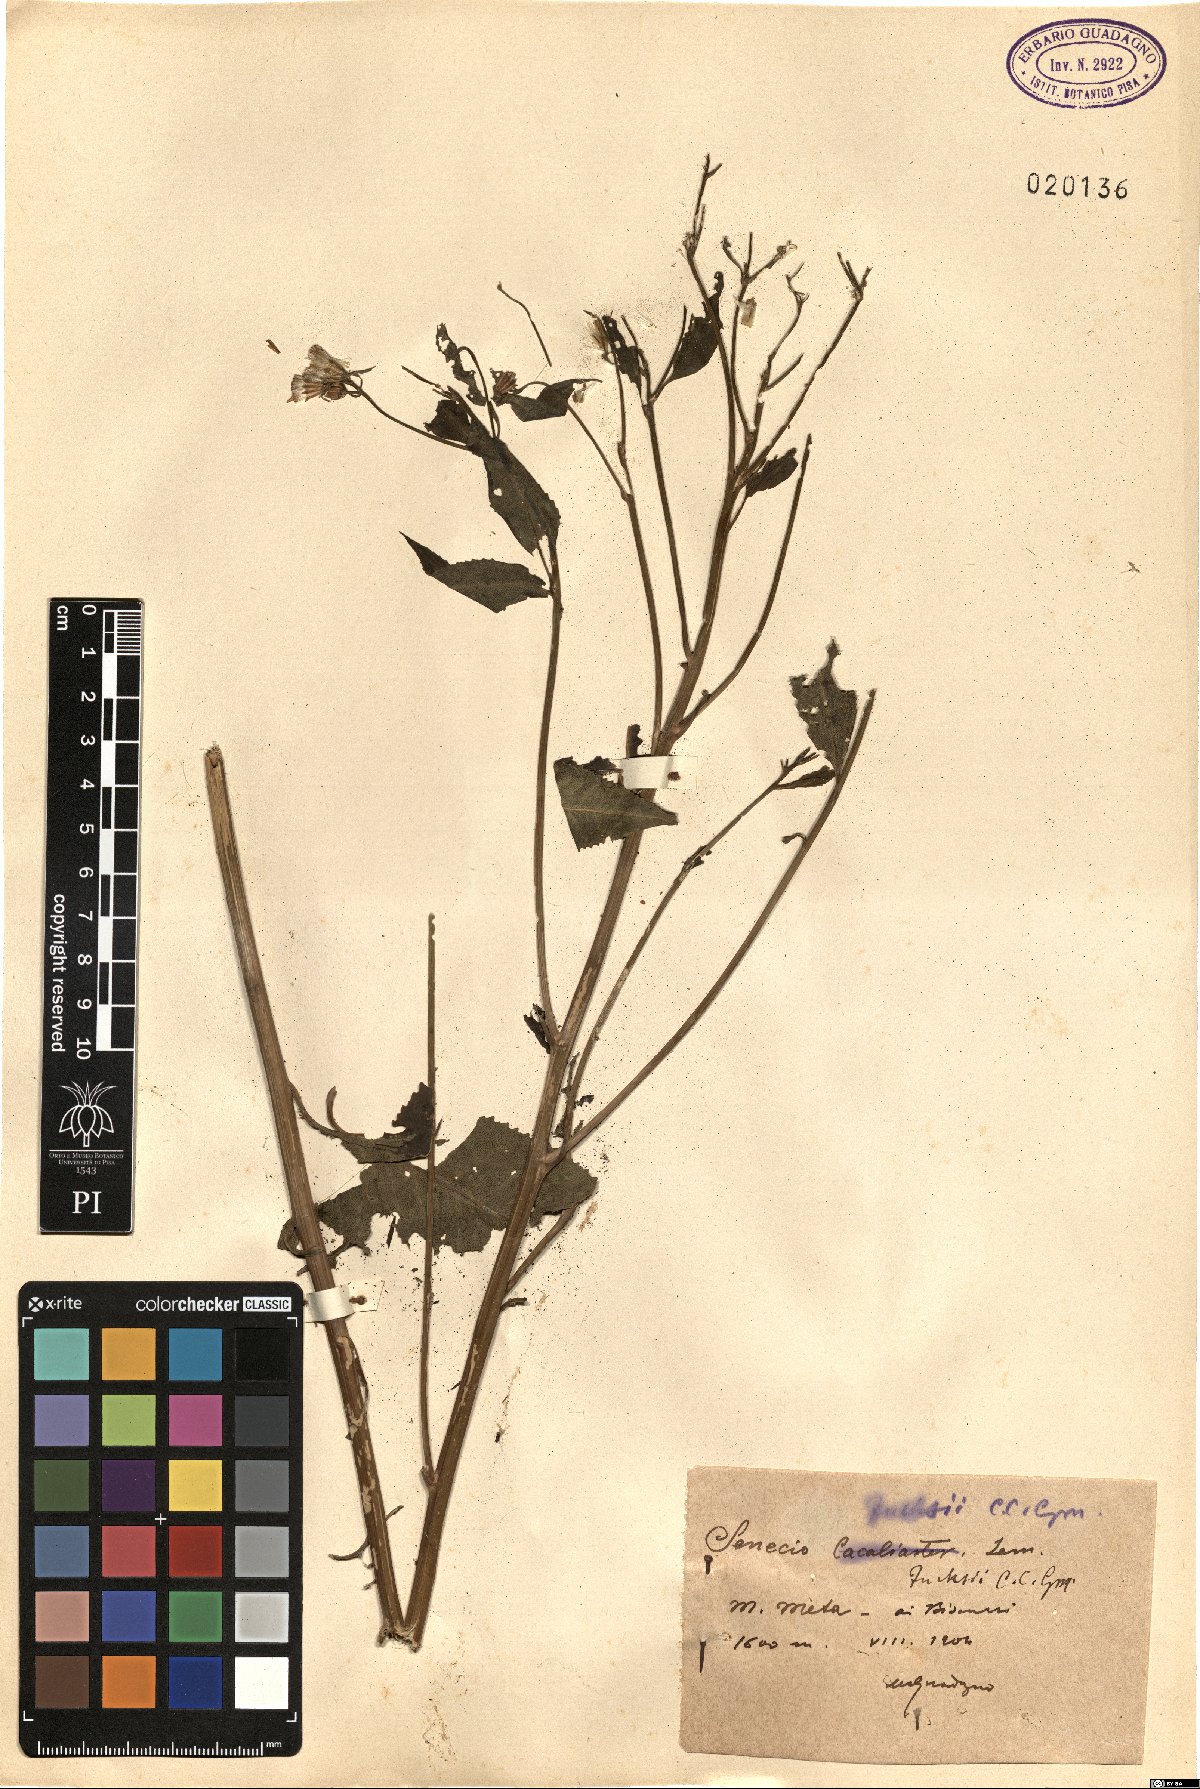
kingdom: Plantae
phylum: Tracheophyta
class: Magnoliopsida
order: Asterales
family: Asteraceae
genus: Senecio
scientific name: Senecio ovatus
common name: Wood ragwort
